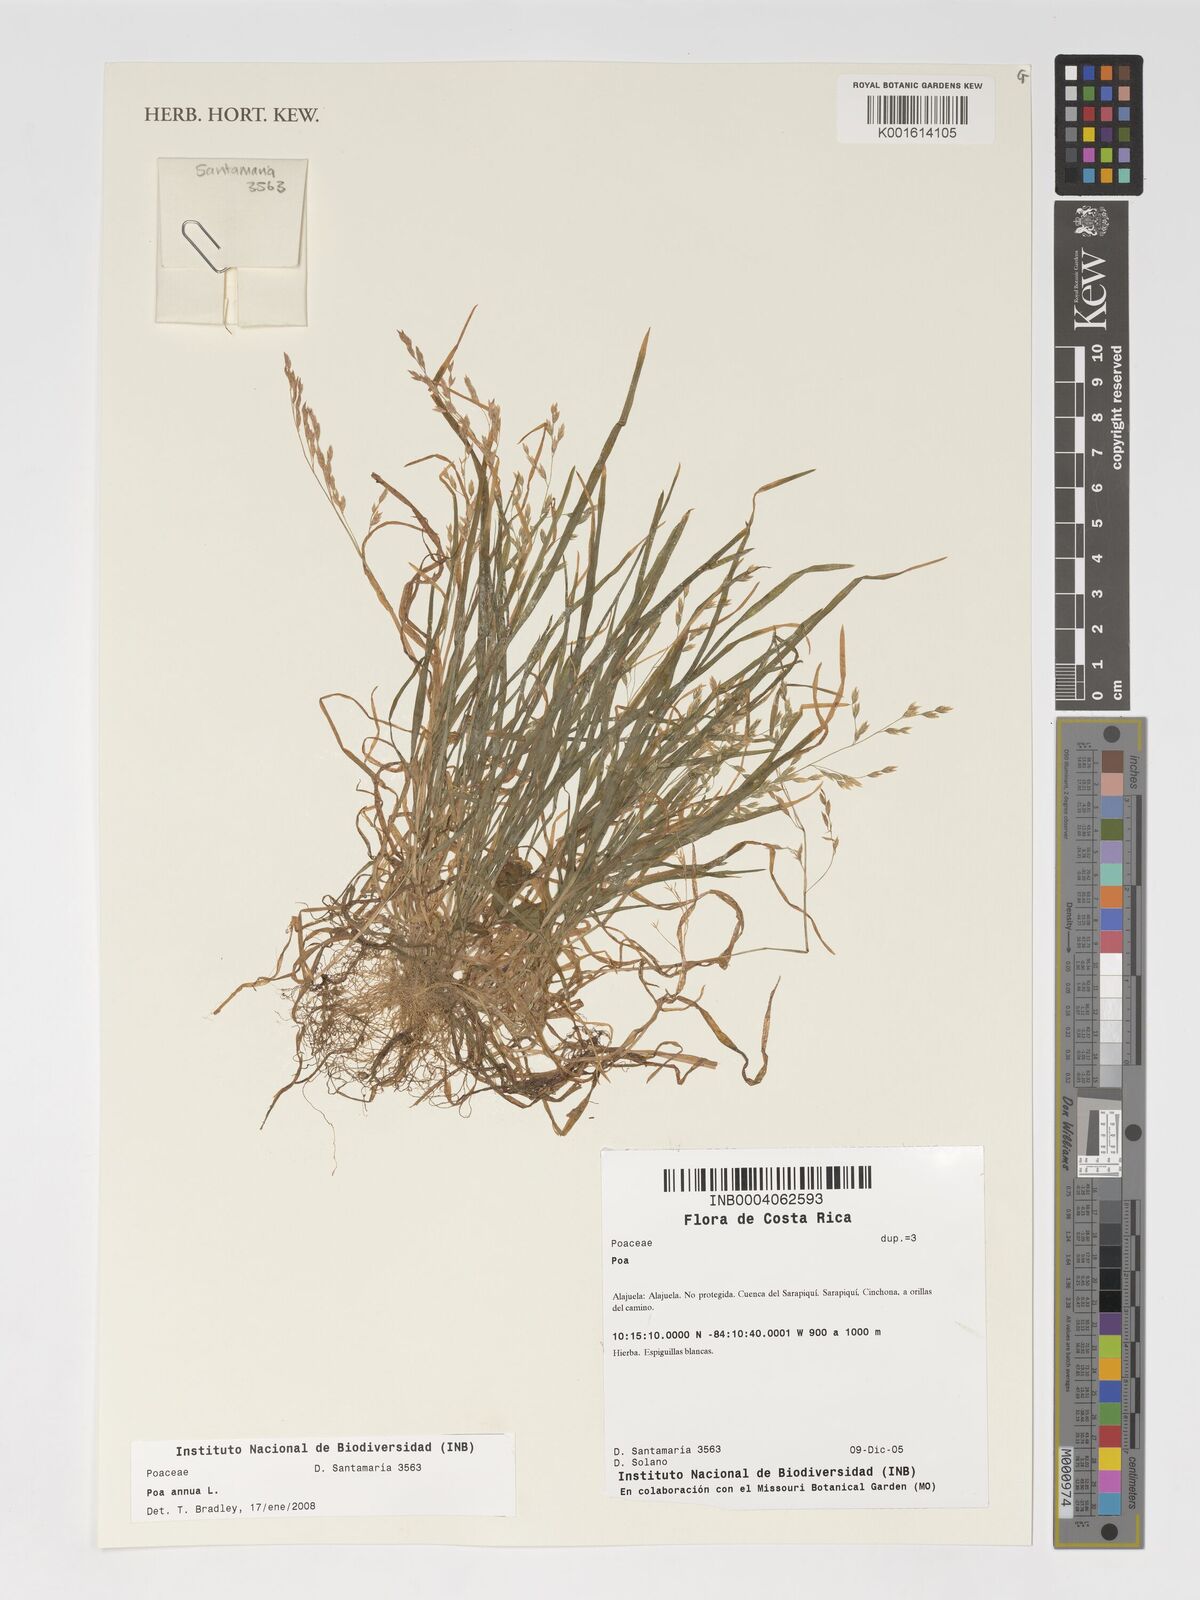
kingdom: Plantae
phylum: Tracheophyta
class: Liliopsida
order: Poales
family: Poaceae
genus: Poa
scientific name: Poa annua
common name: Annual bluegrass
